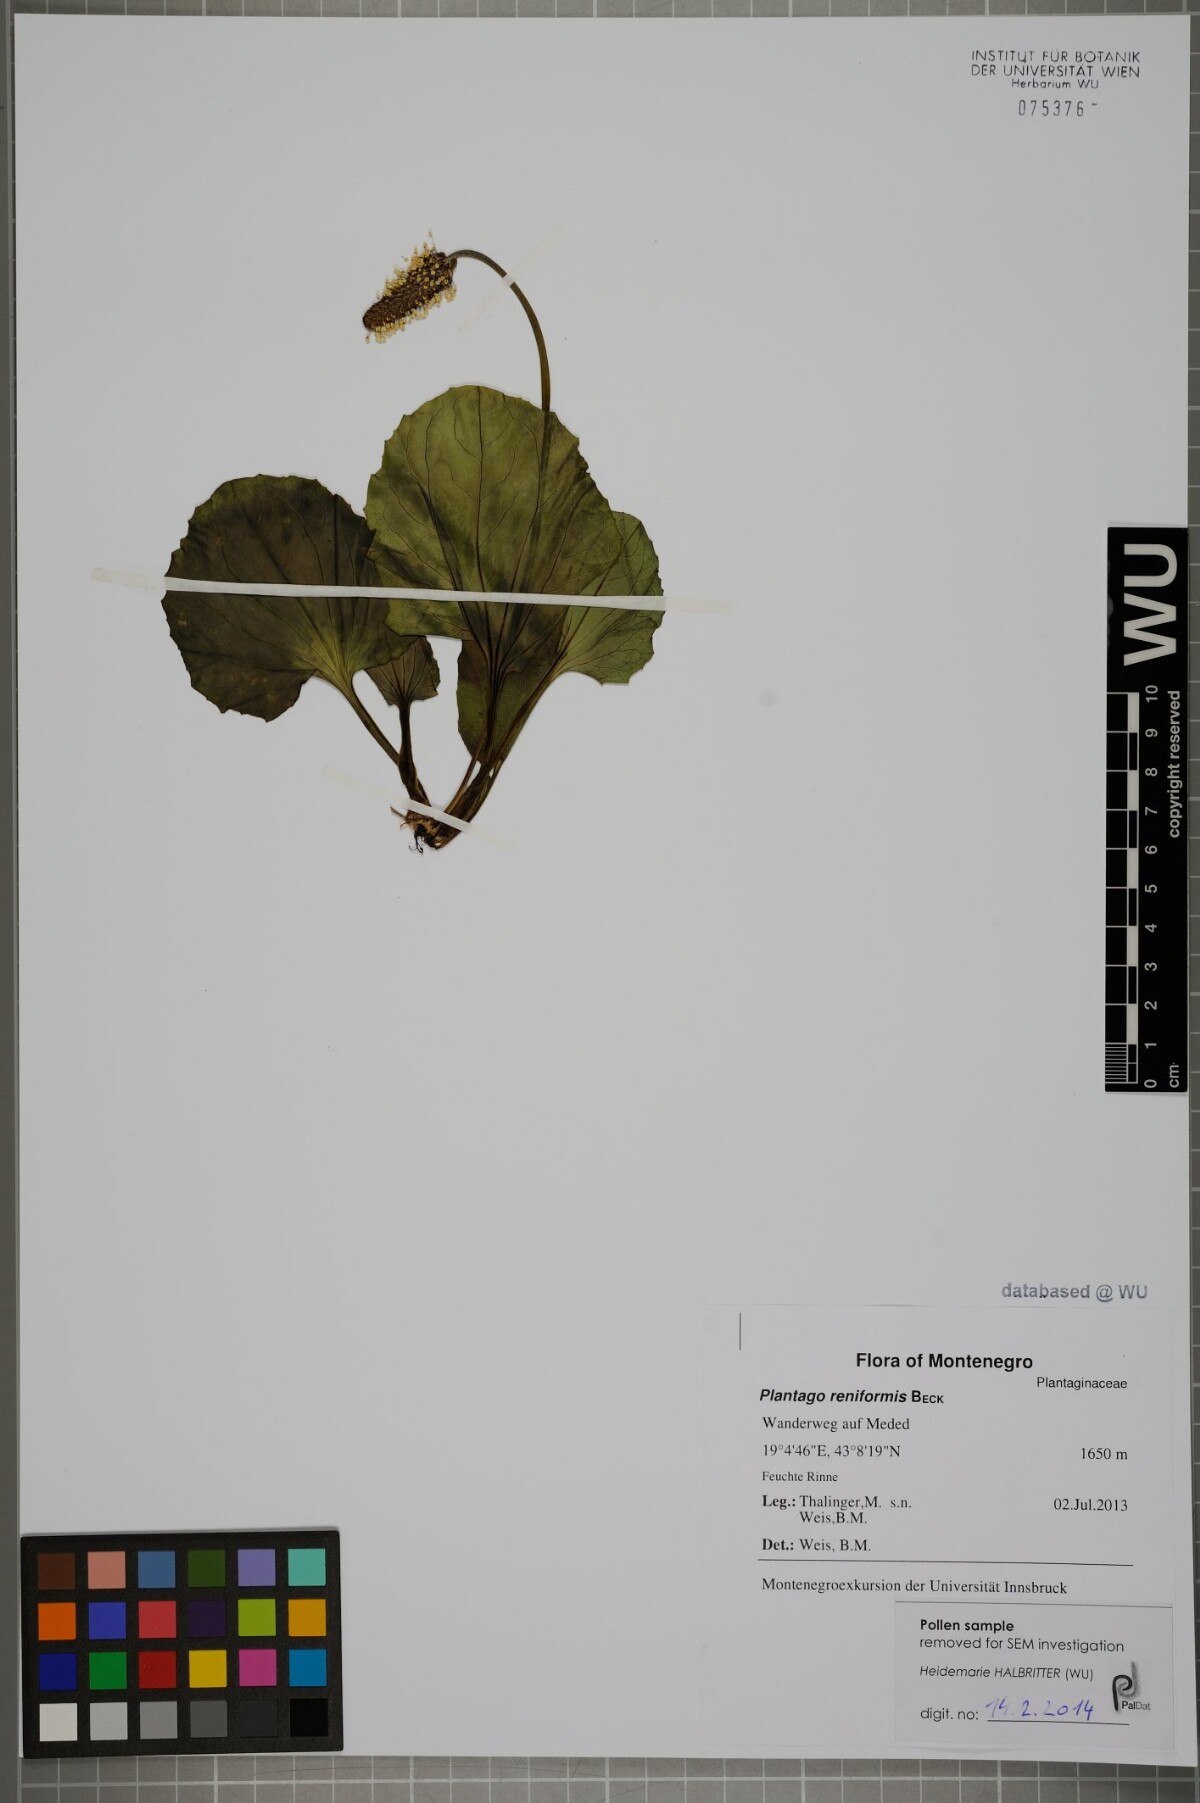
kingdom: Plantae
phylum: Tracheophyta
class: Magnoliopsida
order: Lamiales
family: Plantaginaceae
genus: Plantago
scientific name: Plantago reniformis
